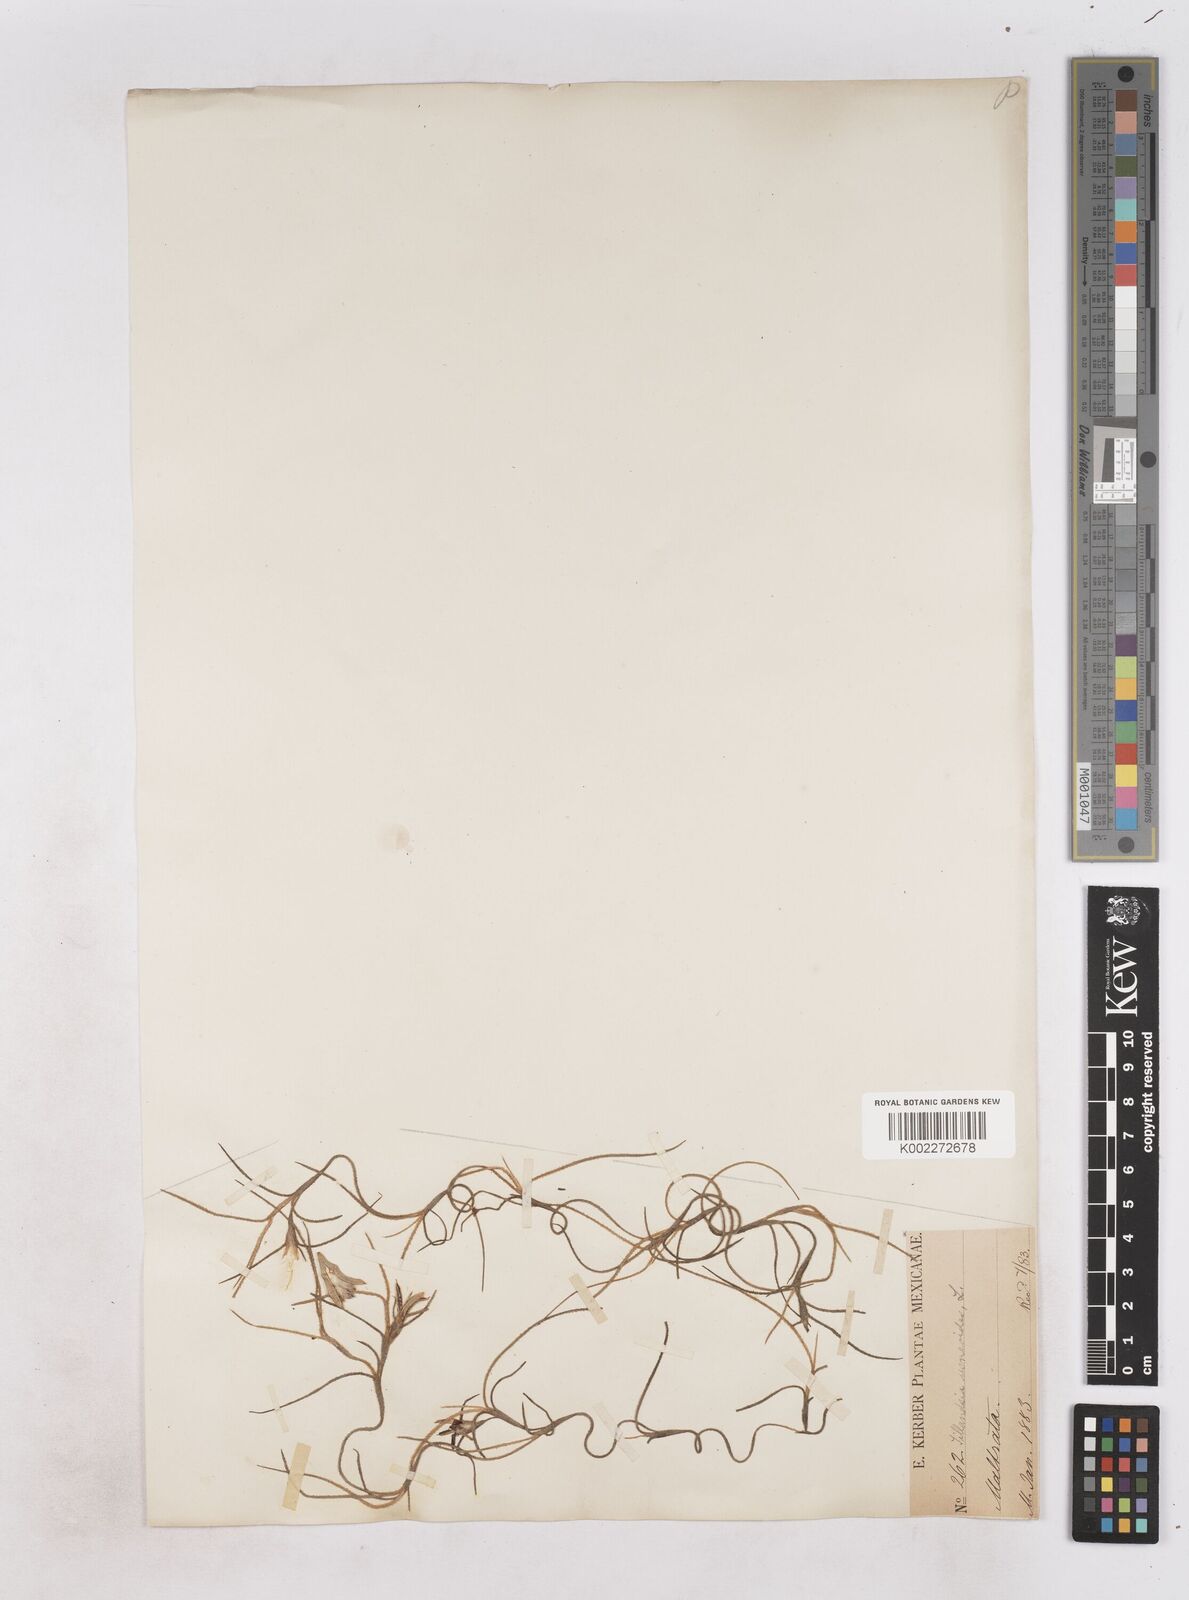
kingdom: Plantae
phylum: Tracheophyta
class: Liliopsida
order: Poales
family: Bromeliaceae
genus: Tillandsia
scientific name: Tillandsia usneoides
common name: Spanish moss
